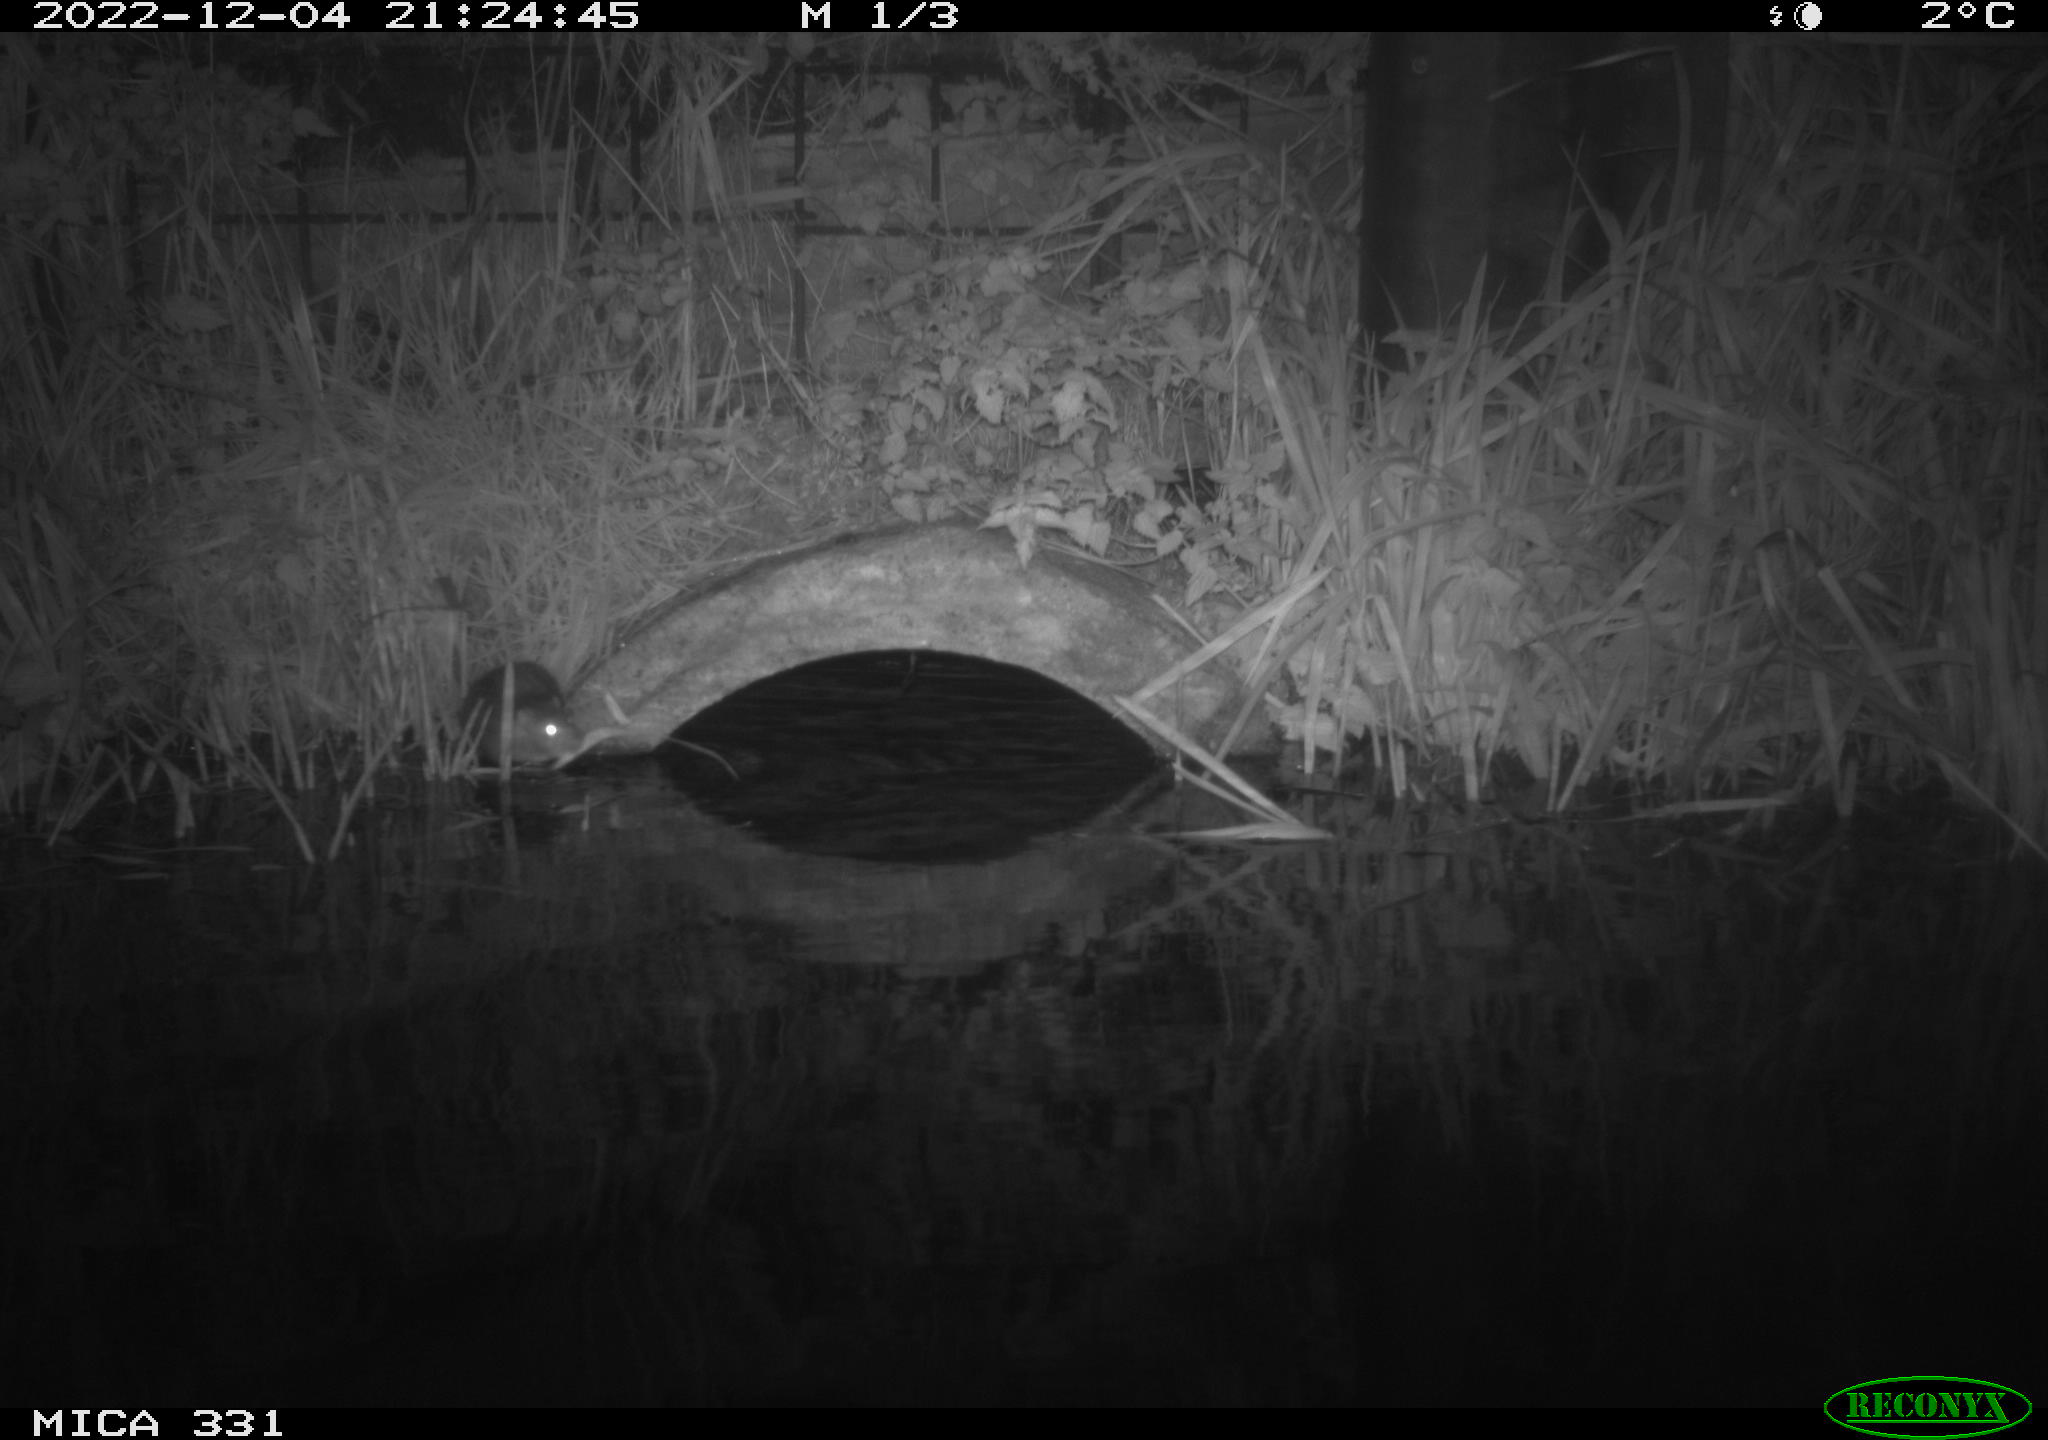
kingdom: Animalia
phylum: Chordata
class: Mammalia
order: Rodentia
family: Muridae
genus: Rattus
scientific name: Rattus norvegicus
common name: Brown rat
